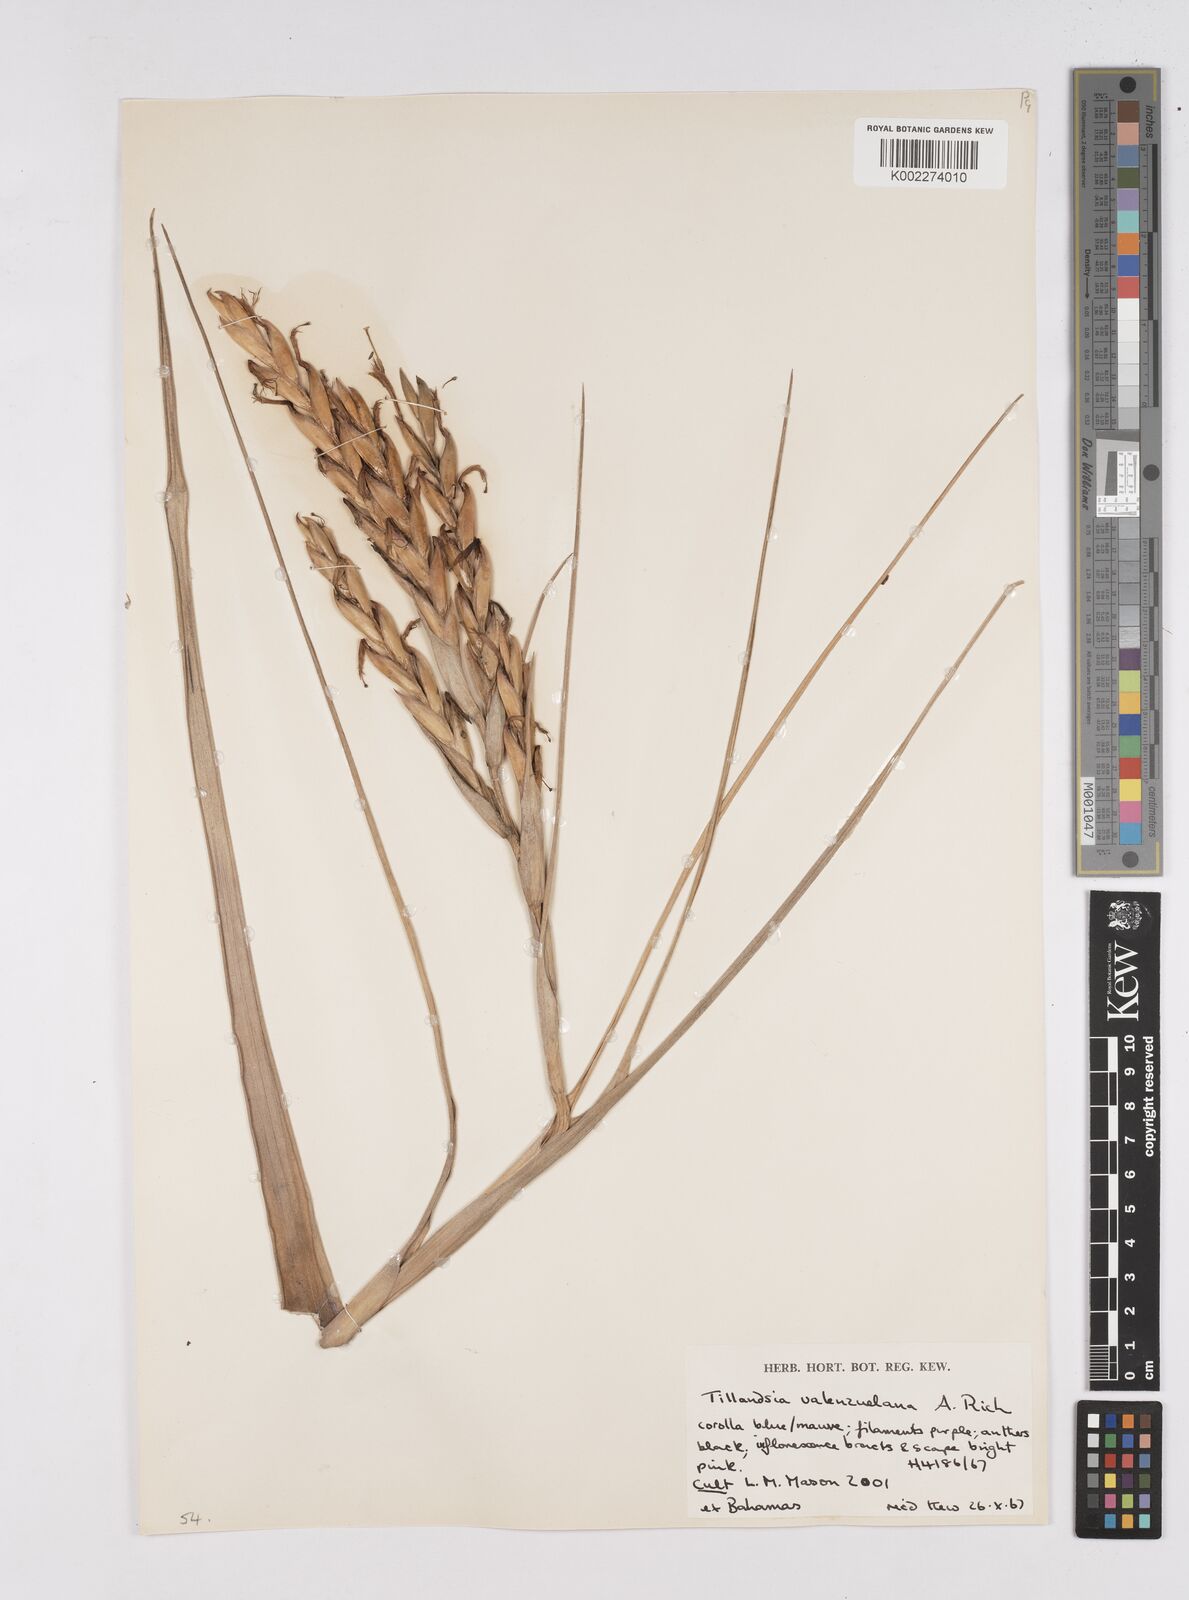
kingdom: Plantae
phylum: Tracheophyta
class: Liliopsida
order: Poales
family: Bromeliaceae
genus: Tillandsia
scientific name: Tillandsia variabilis
